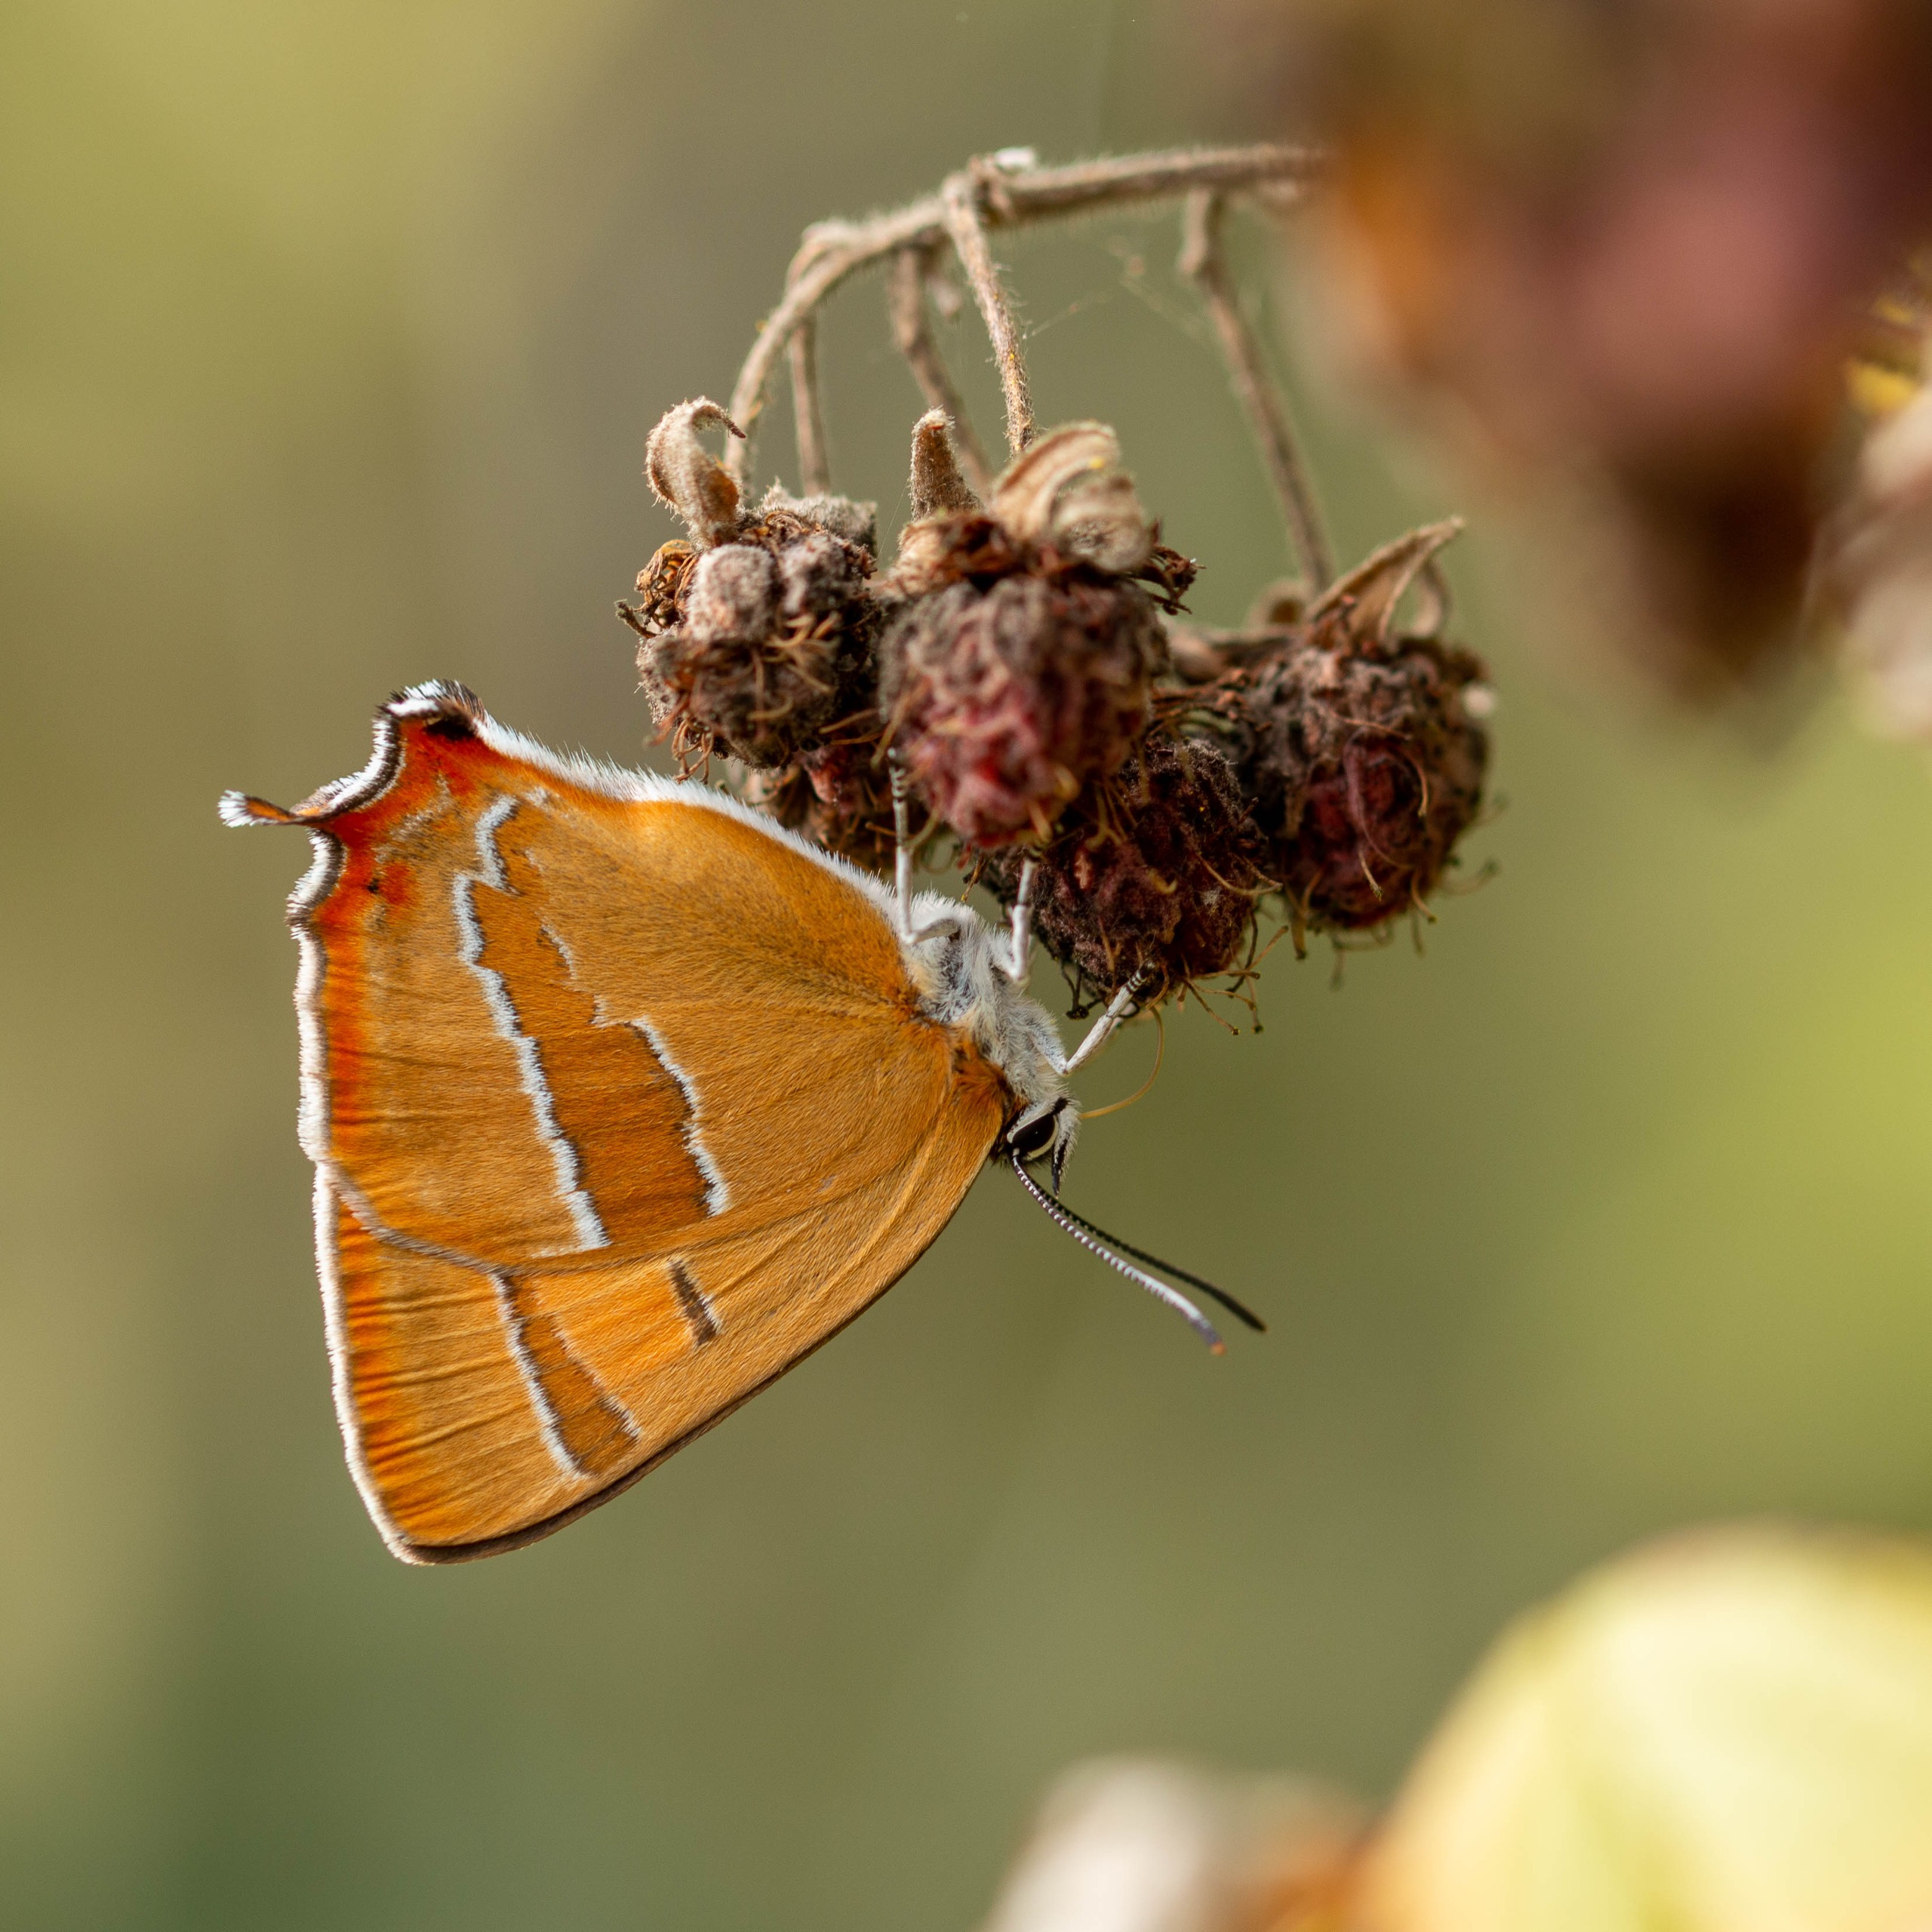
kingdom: Animalia
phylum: Arthropoda
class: Insecta
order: Lepidoptera
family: Lycaenidae
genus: Thecla
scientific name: Thecla betulae
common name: Guldhale
